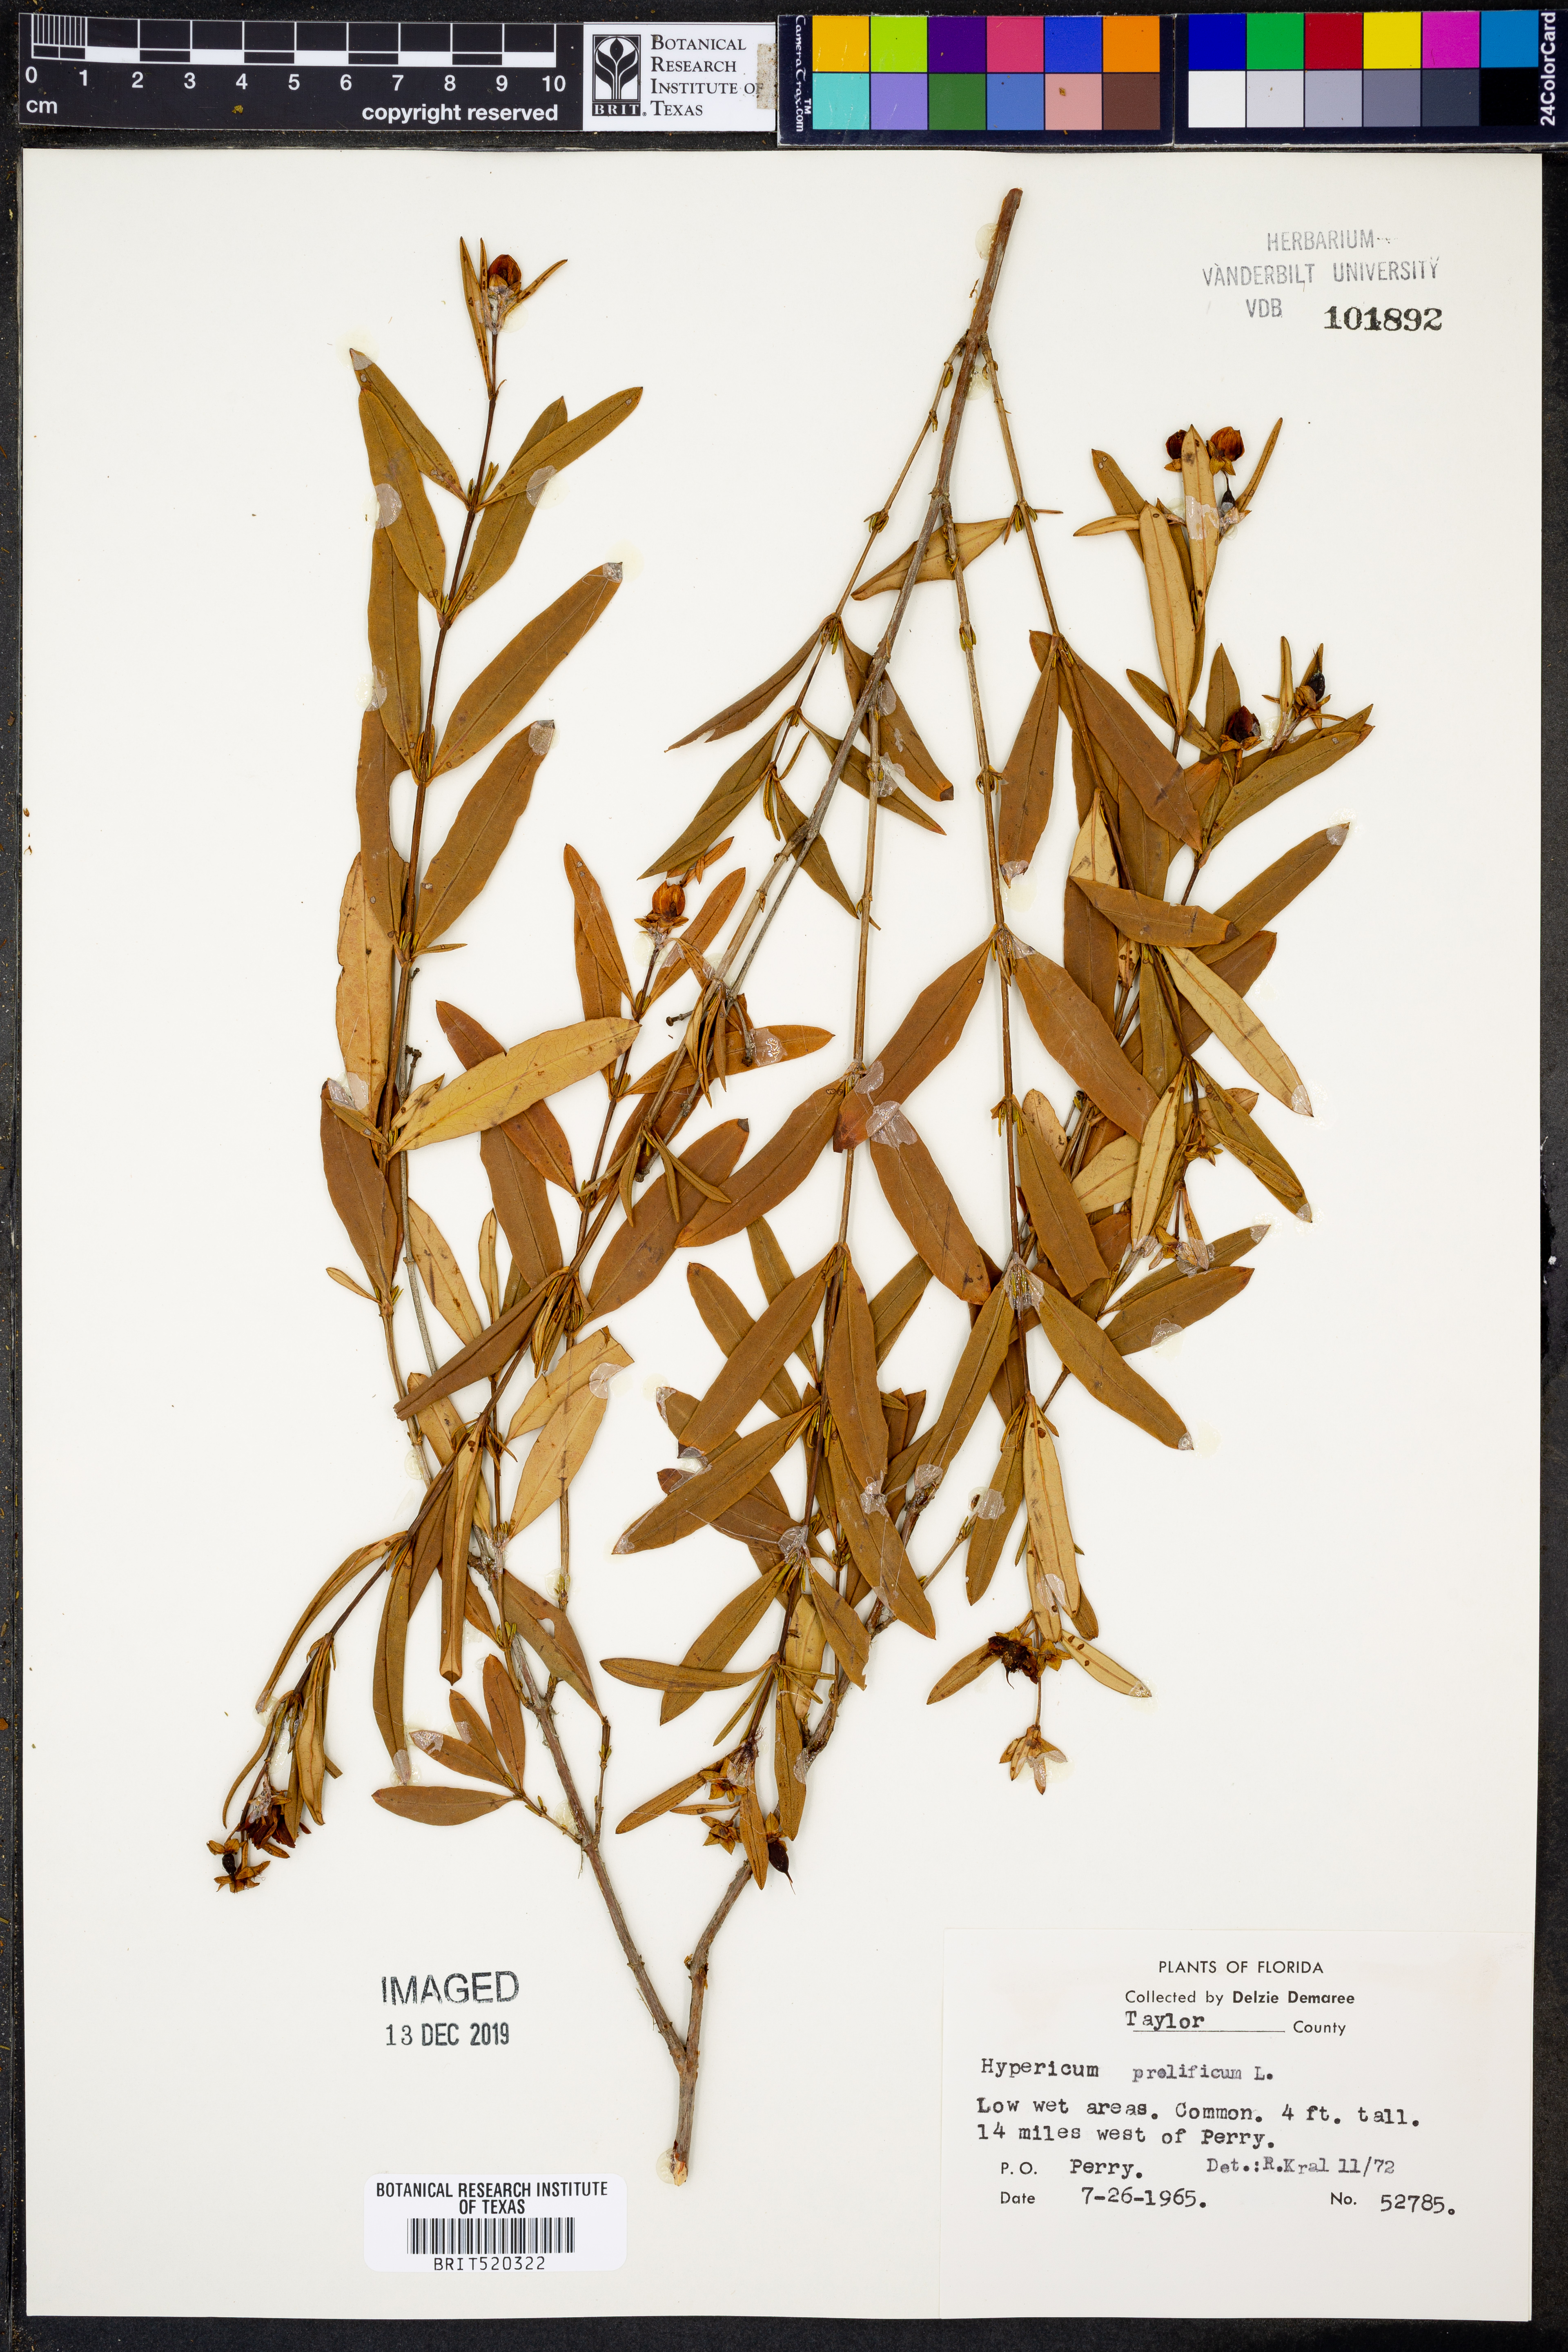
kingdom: Plantae
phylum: Tracheophyta
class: Magnoliopsida
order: Malpighiales
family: Hypericaceae
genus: Hypericum
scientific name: Hypericum prolificum
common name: Shrubby st. john's-wort
